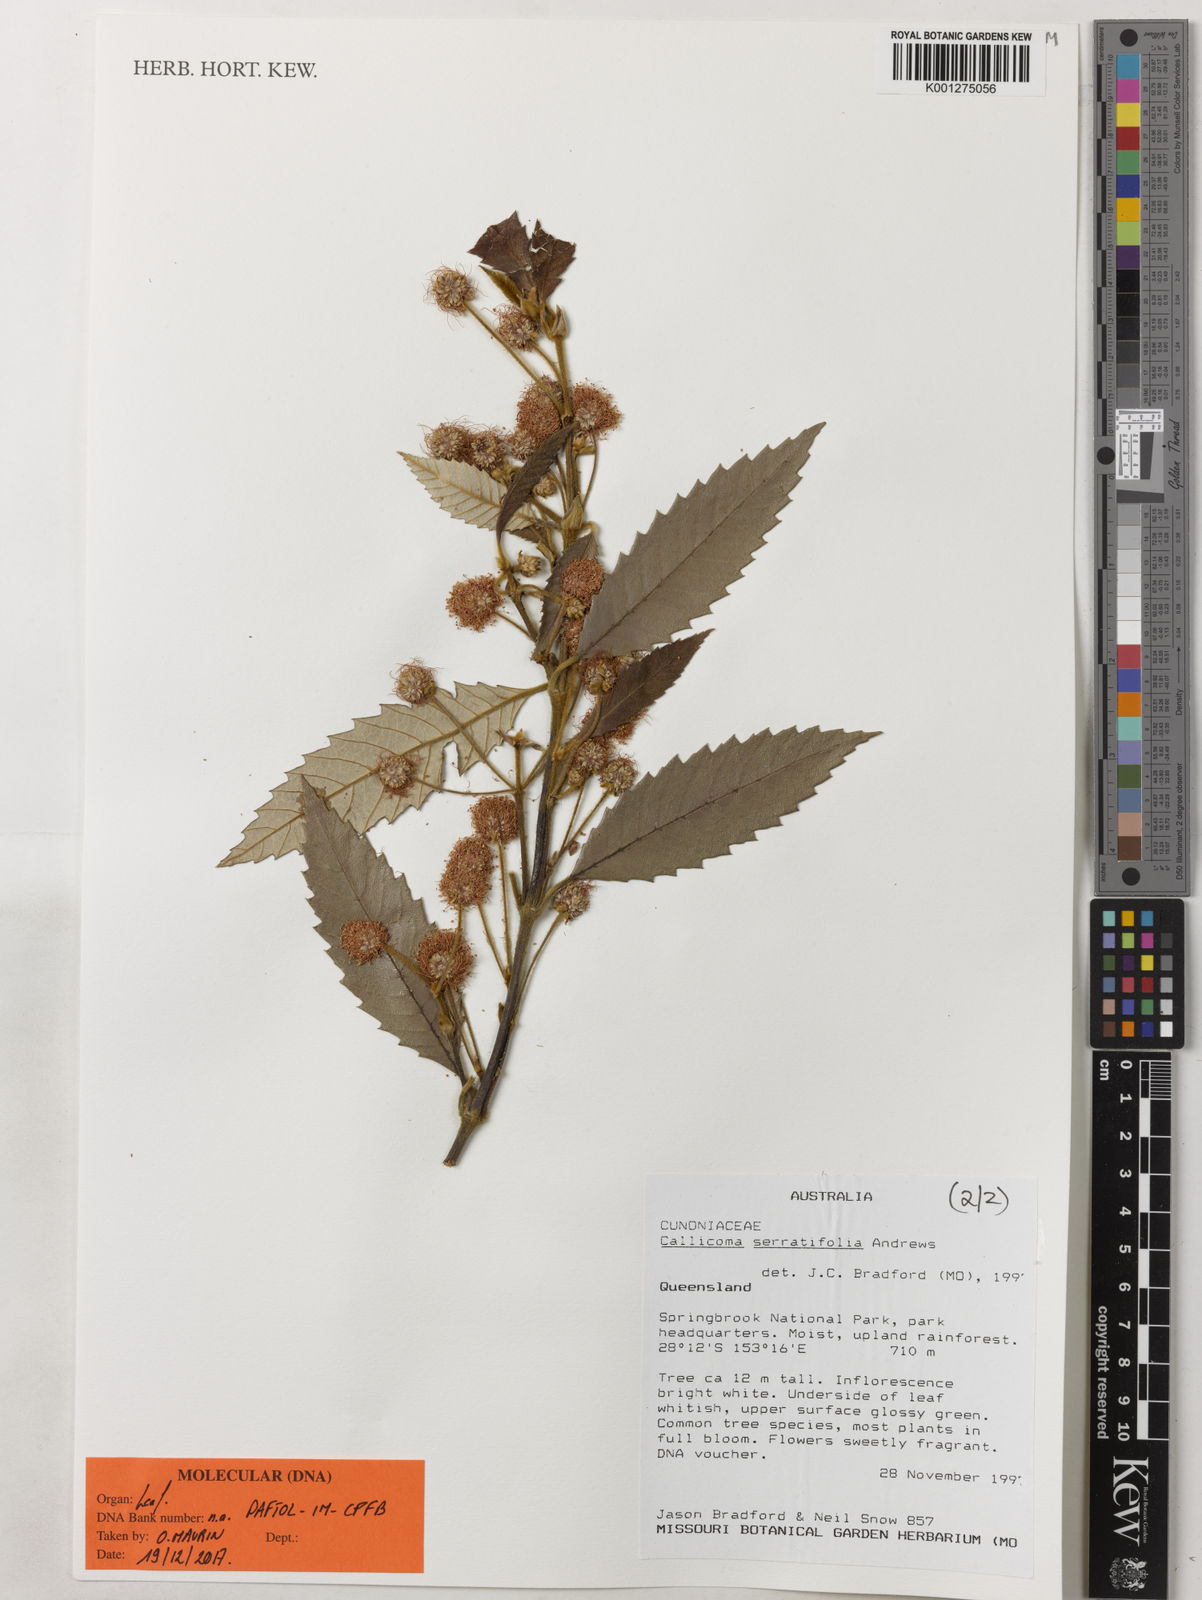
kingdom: Plantae
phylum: Tracheophyta
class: Magnoliopsida
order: Oxalidales
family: Cunoniaceae
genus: Callicoma
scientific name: Callicoma serratifolia
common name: Black wattle
